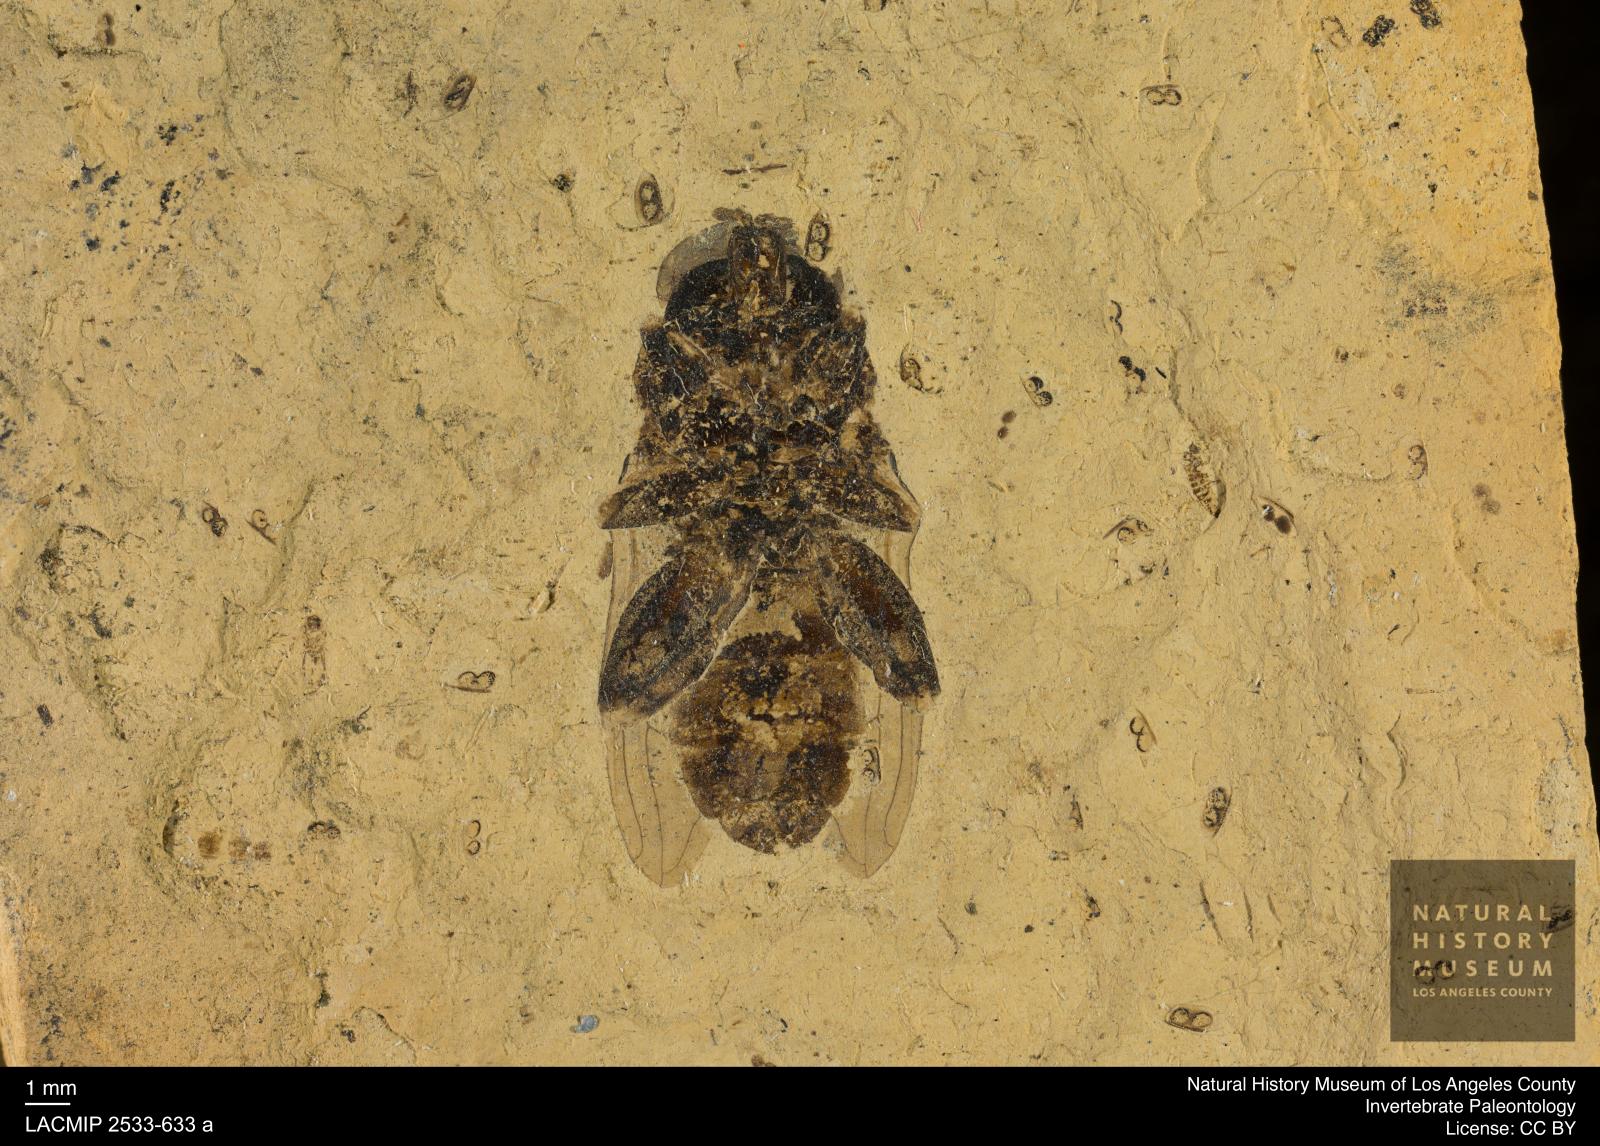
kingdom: Animalia
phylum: Arthropoda
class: Insecta
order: Diptera
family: Syrphidae
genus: Temnostoma
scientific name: Temnostoma sacki
